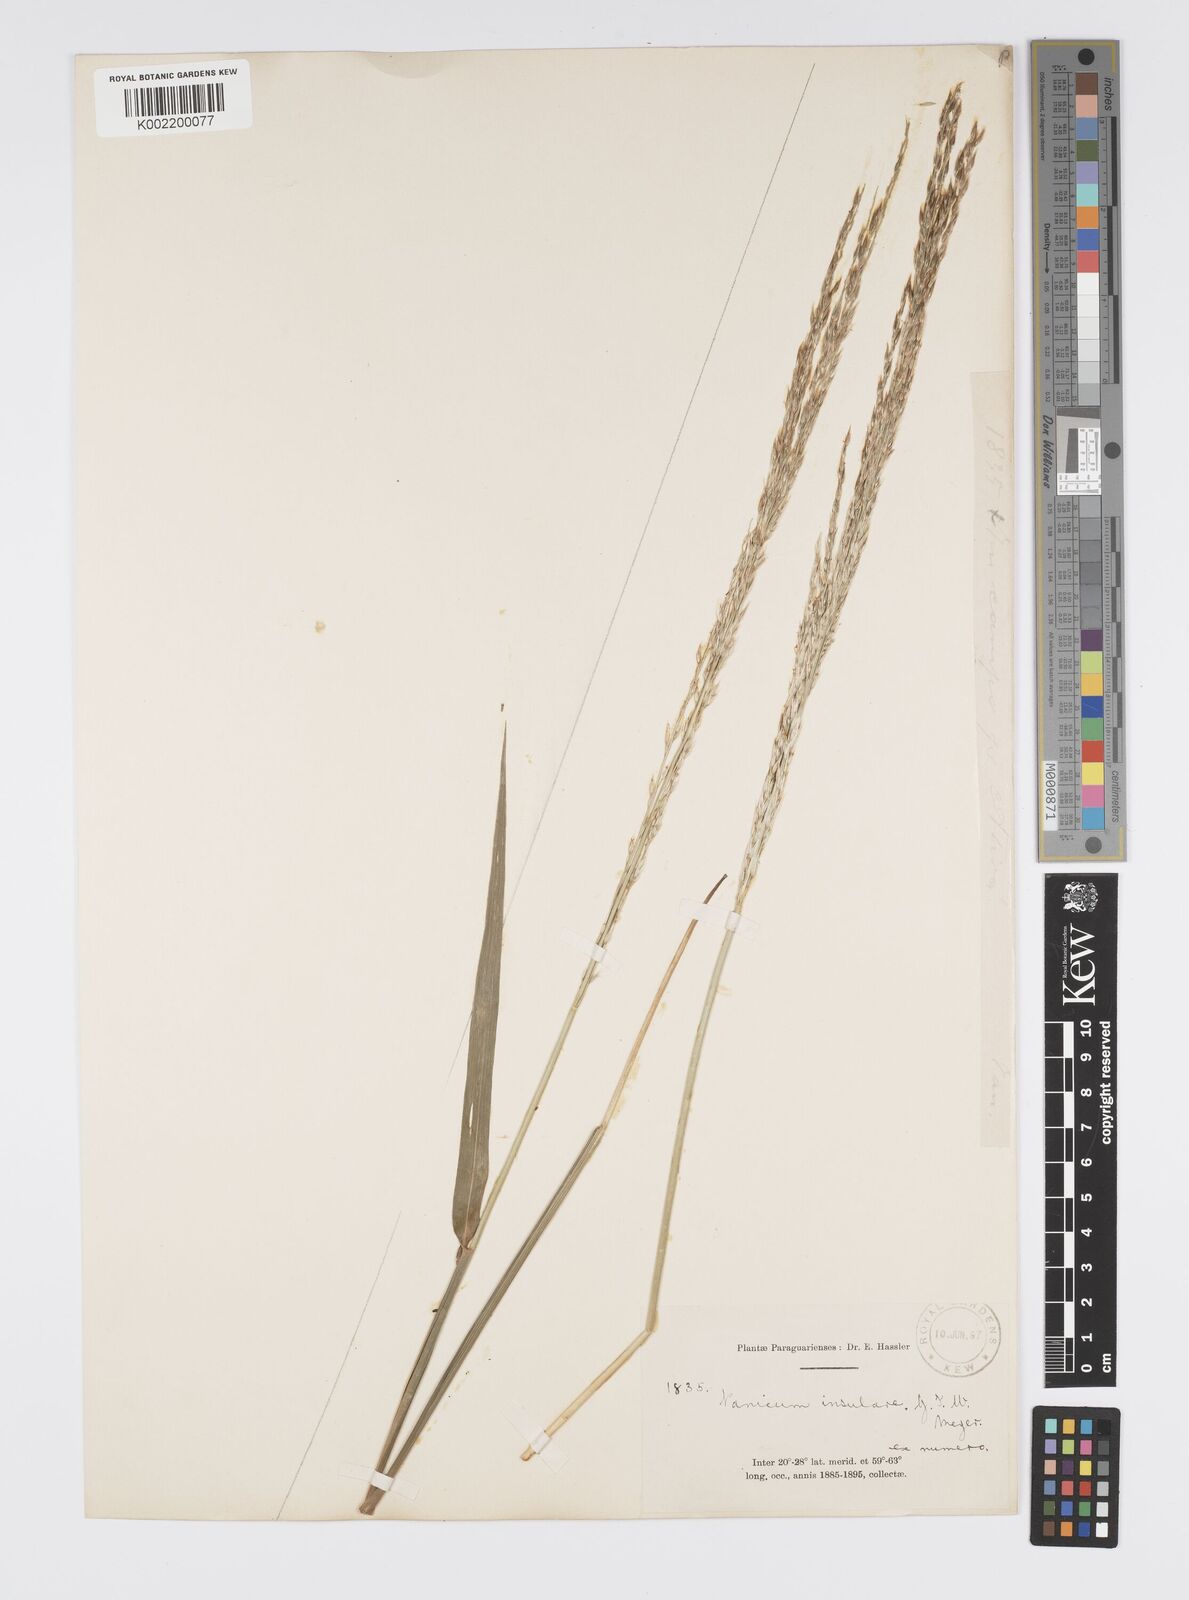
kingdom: Plantae
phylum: Tracheophyta
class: Liliopsida
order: Poales
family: Poaceae
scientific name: Poaceae
